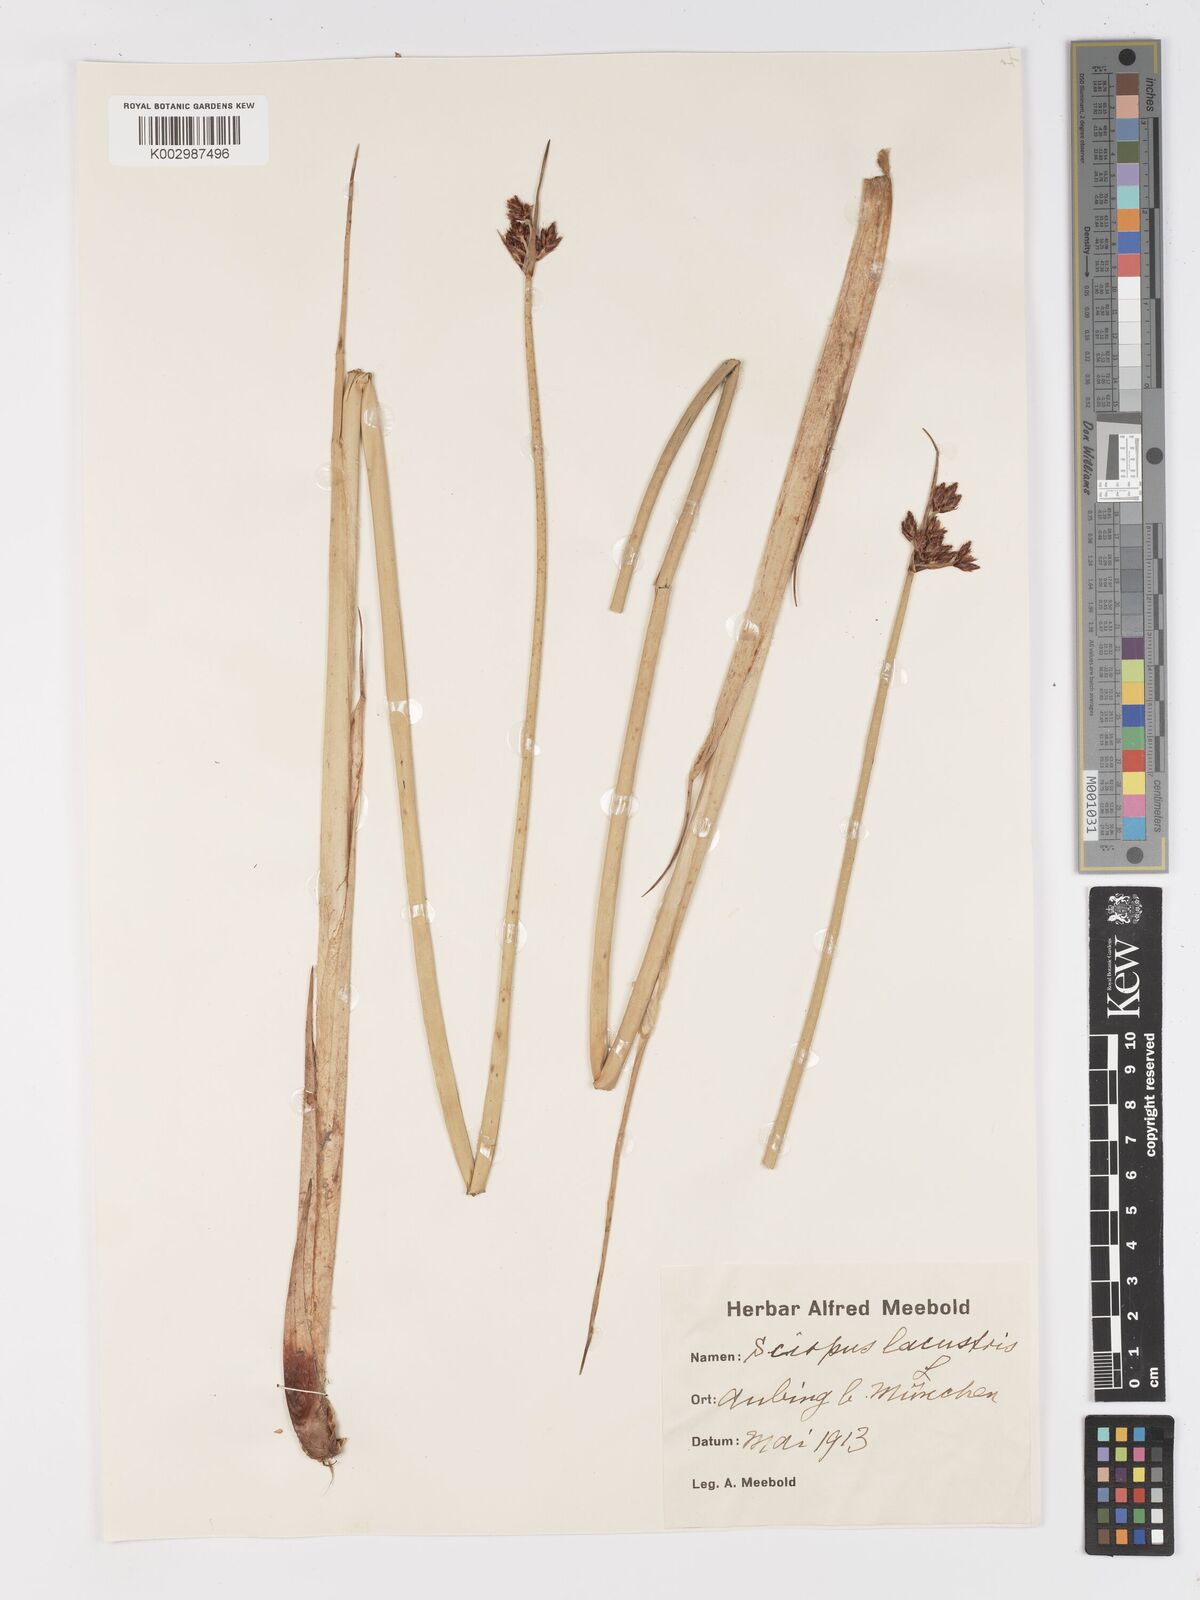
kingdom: Plantae
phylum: Tracheophyta
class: Liliopsida
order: Poales
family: Cyperaceae
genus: Schoenoplectus
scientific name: Schoenoplectus lacustris
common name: Common club-rush
